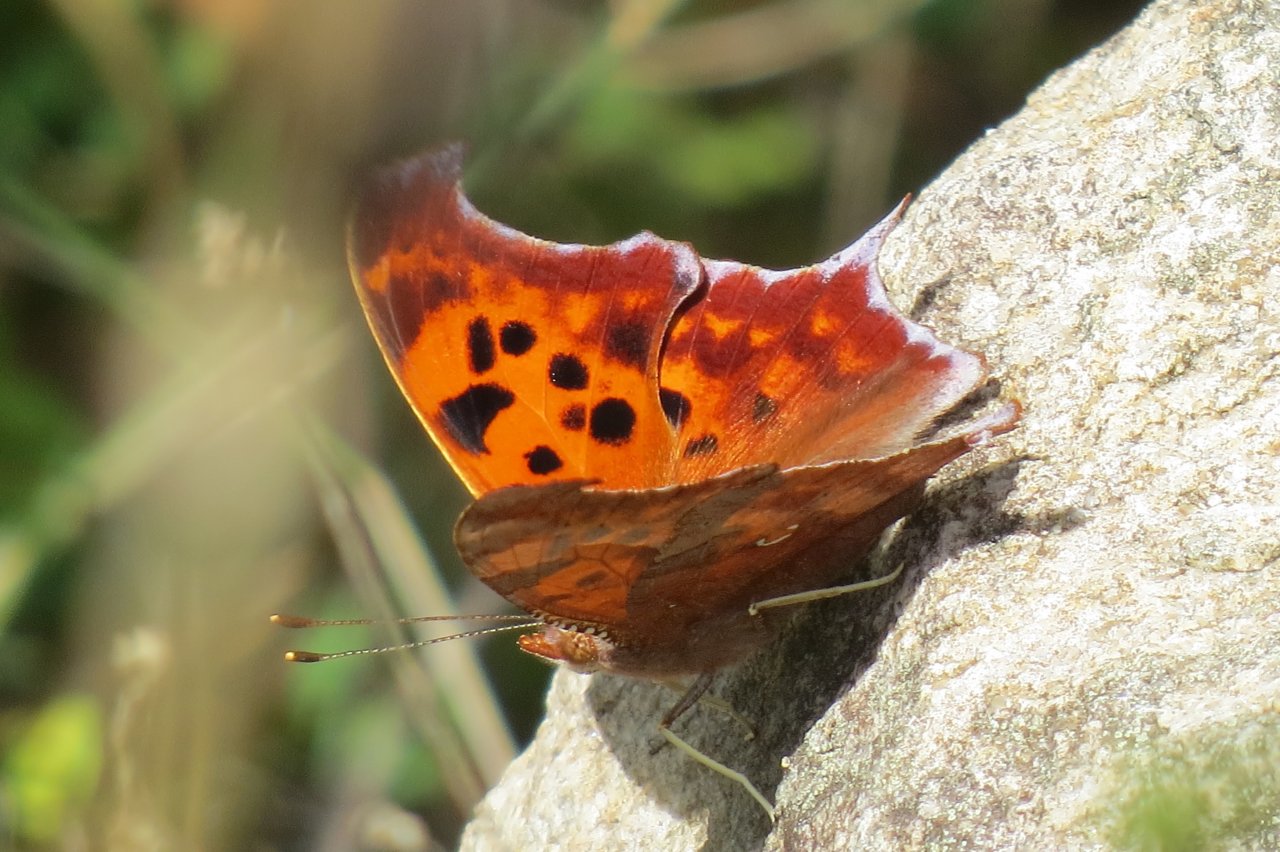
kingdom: Animalia
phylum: Arthropoda
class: Insecta
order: Lepidoptera
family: Nymphalidae
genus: Polygonia
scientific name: Polygonia interrogationis
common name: Question Mark
